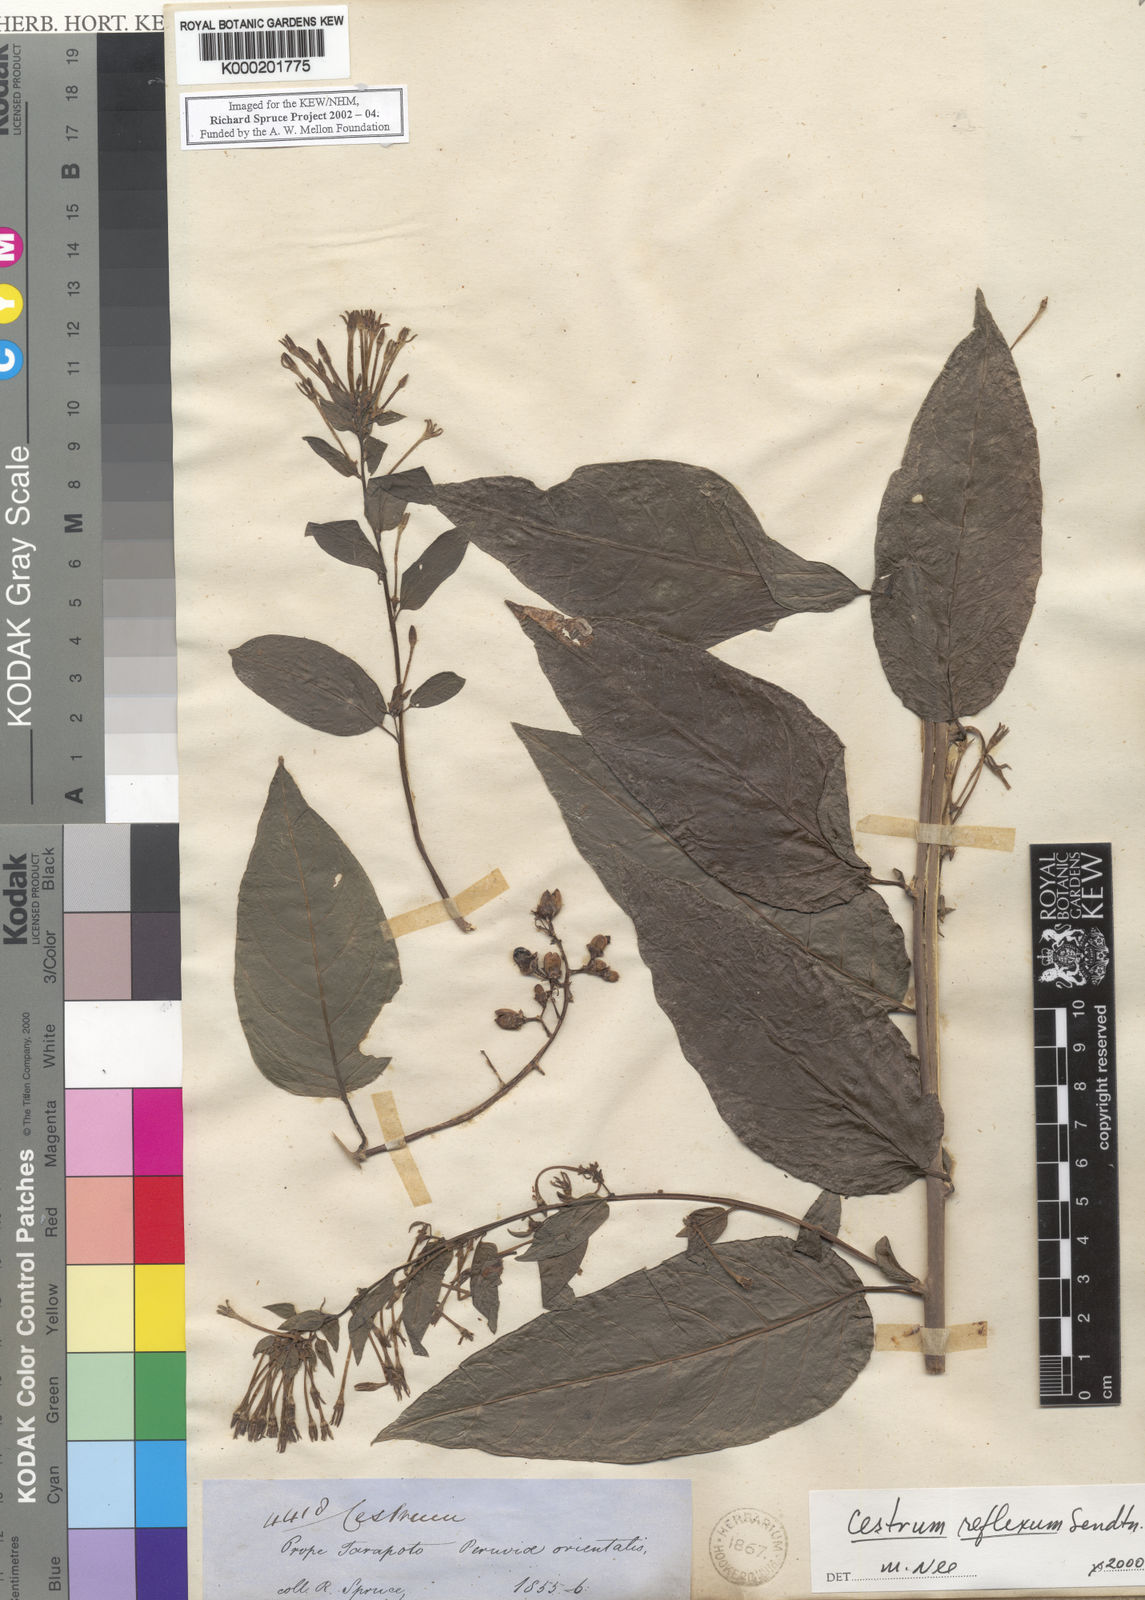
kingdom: Plantae
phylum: Tracheophyta
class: Magnoliopsida
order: Solanales
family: Solanaceae
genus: Cestrum
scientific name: Cestrum reflexum
